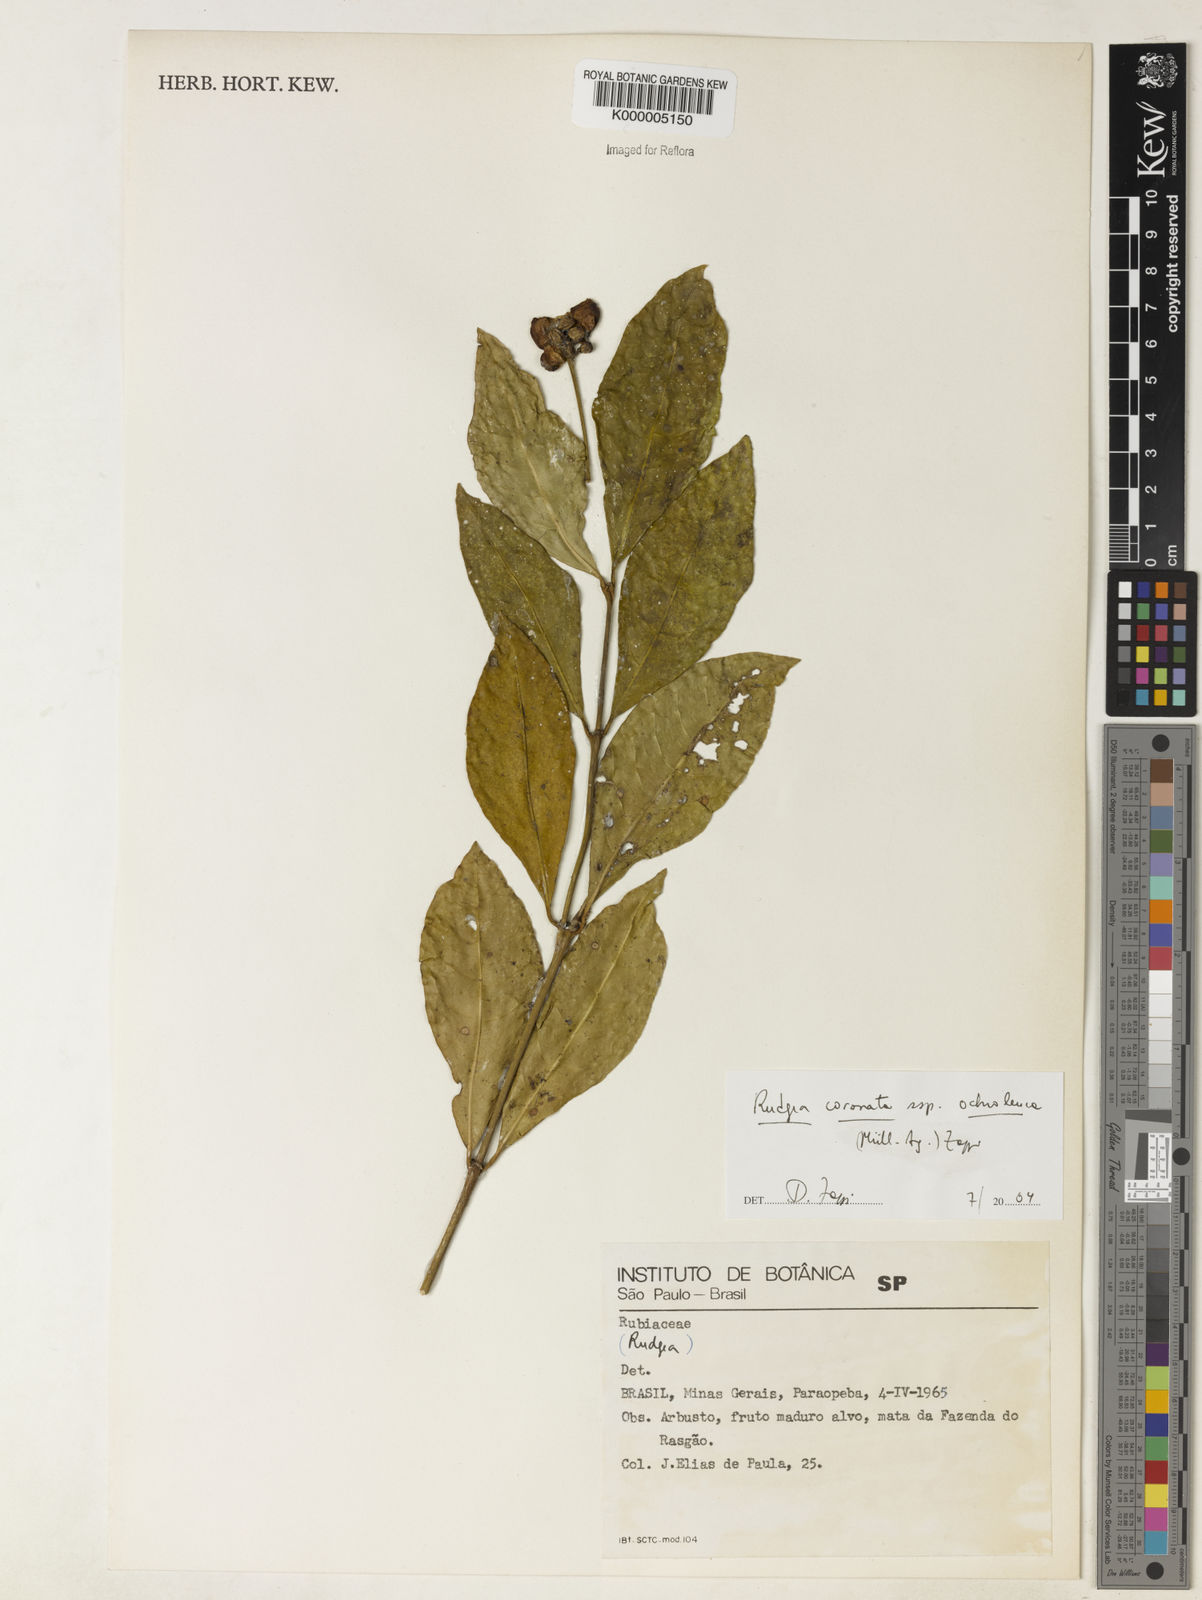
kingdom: Plantae
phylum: Tracheophyta
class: Magnoliopsida
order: Gentianales
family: Rubiaceae
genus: Rudgea
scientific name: Rudgea coronata
